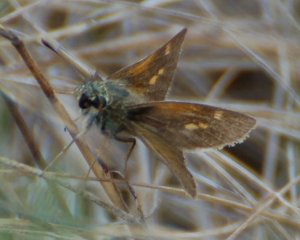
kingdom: Animalia
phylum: Arthropoda
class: Insecta
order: Lepidoptera
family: Hesperiidae
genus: Polites
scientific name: Polites themistocles
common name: Tawny-edged Skipper
